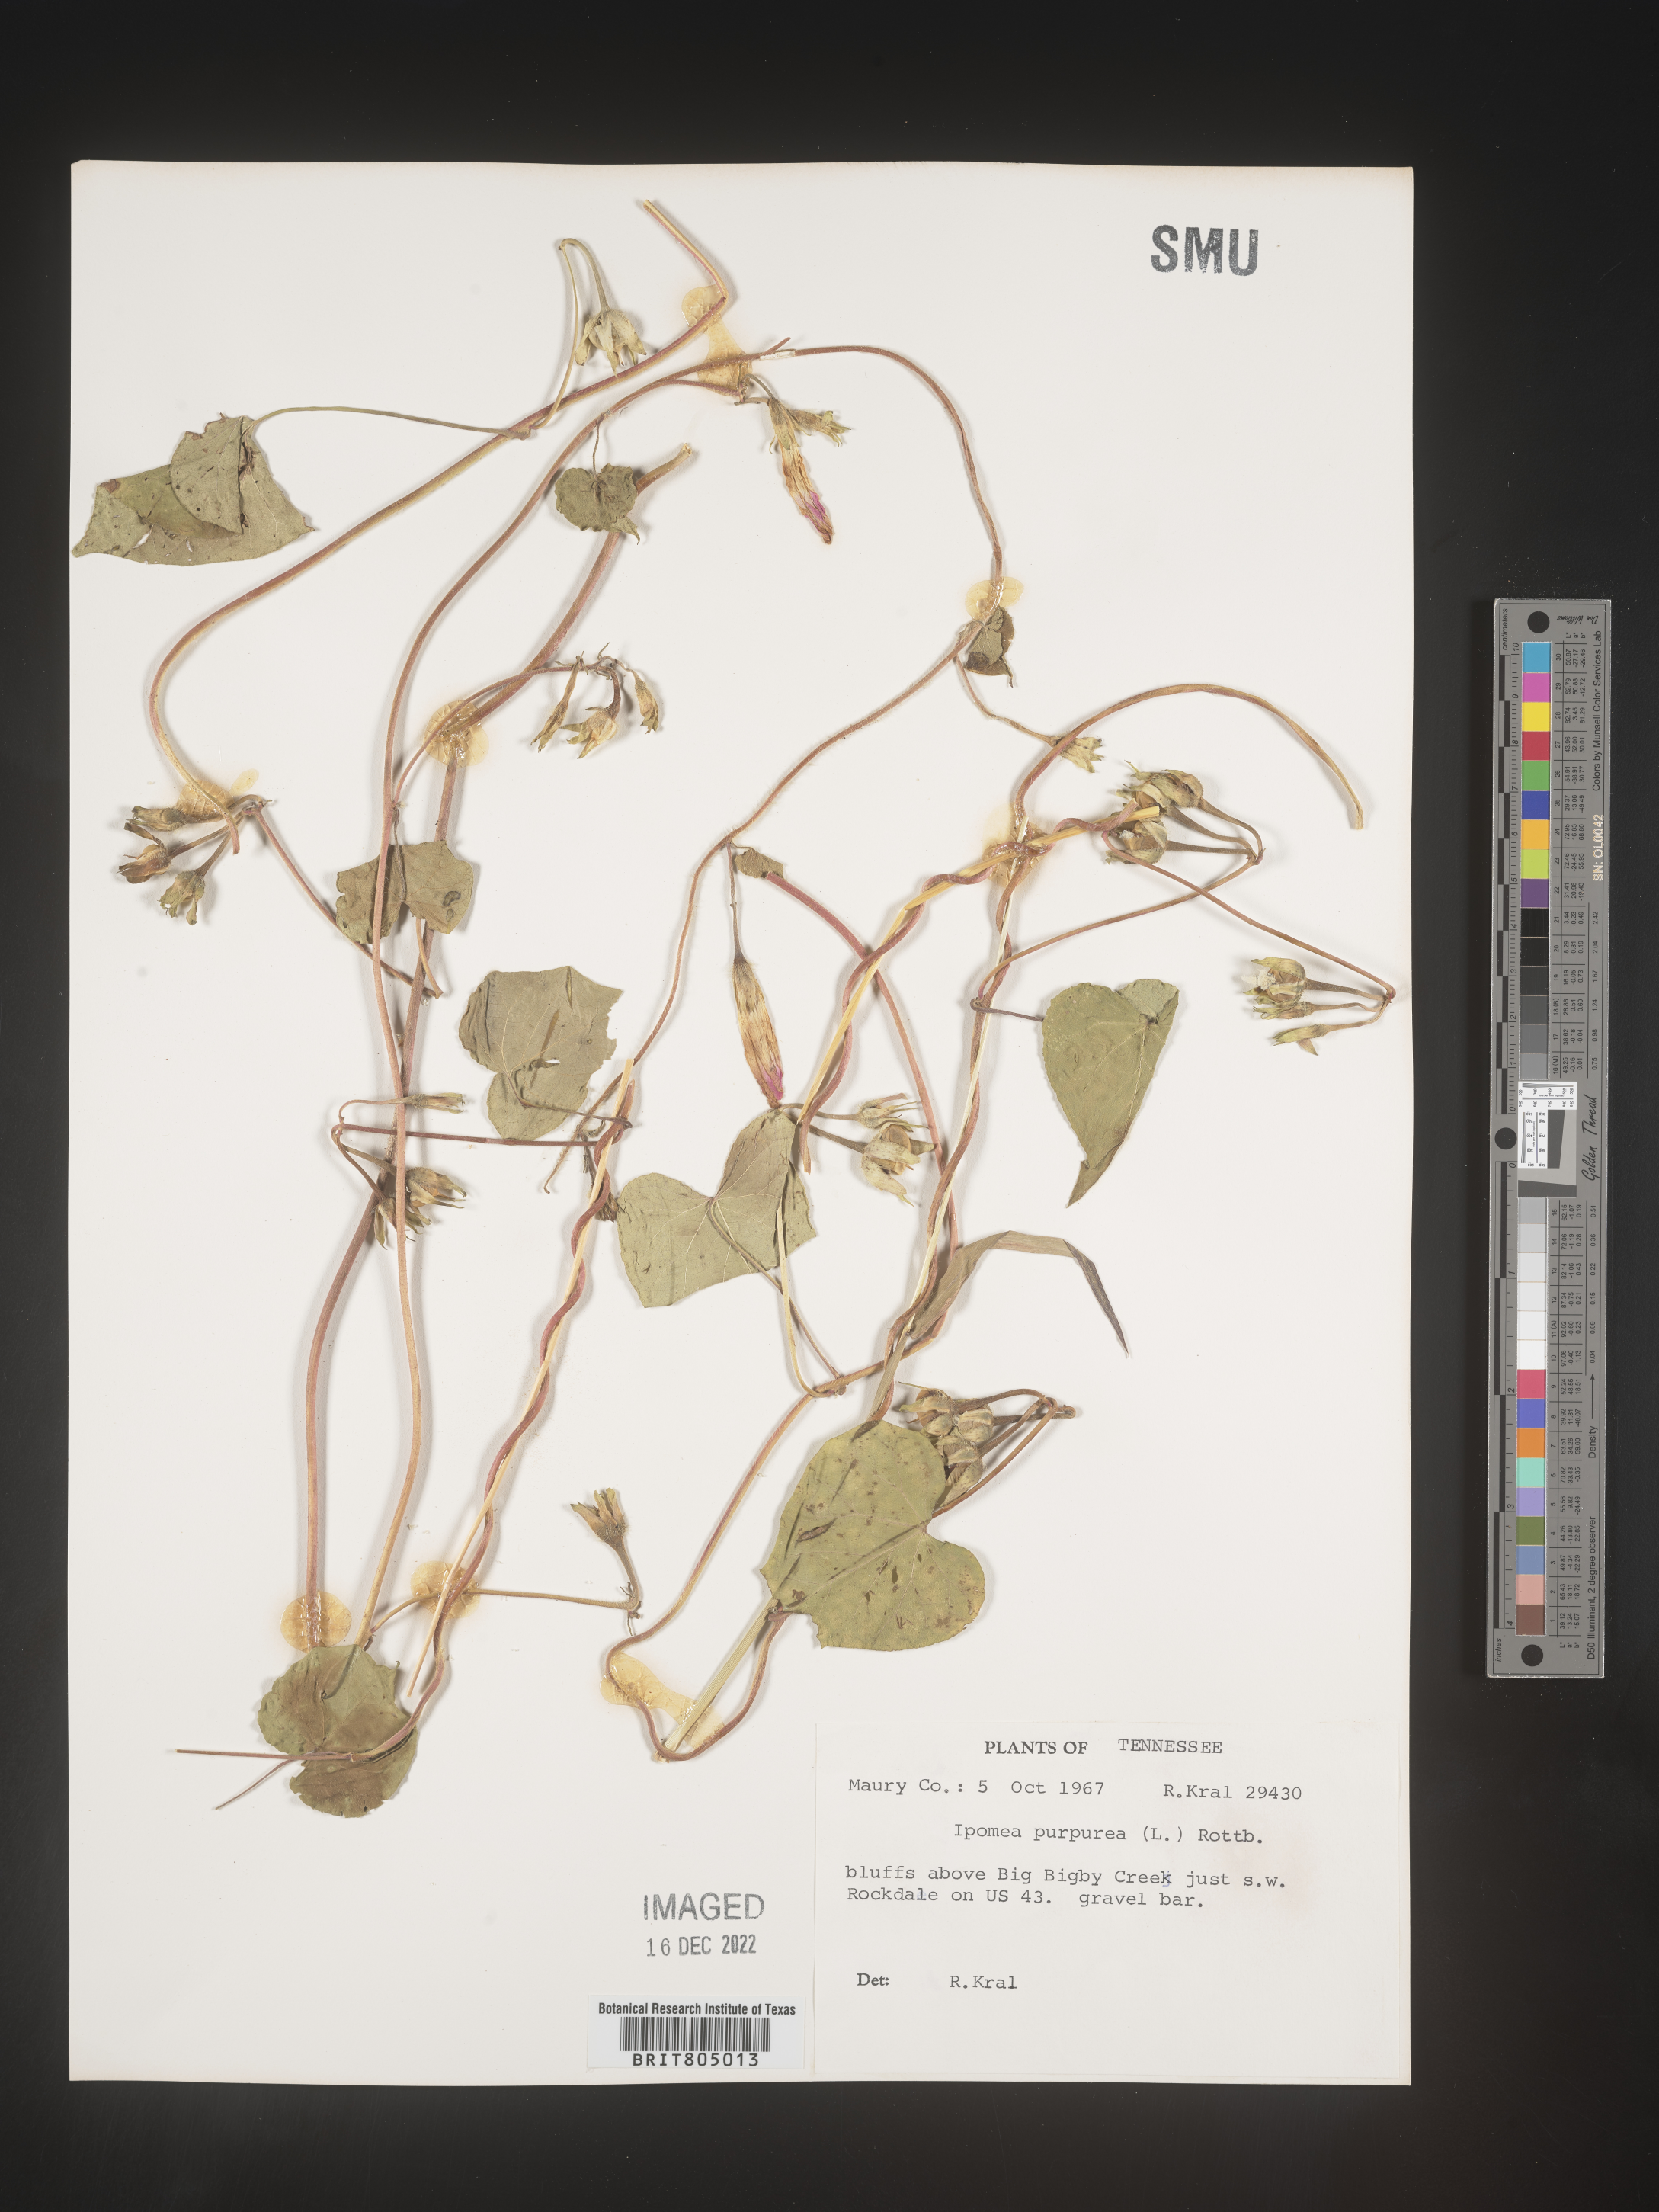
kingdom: Plantae
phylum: Tracheophyta
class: Magnoliopsida
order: Solanales
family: Convolvulaceae
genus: Ipomoea
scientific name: Ipomoea purpurea
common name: Common morning-glory
